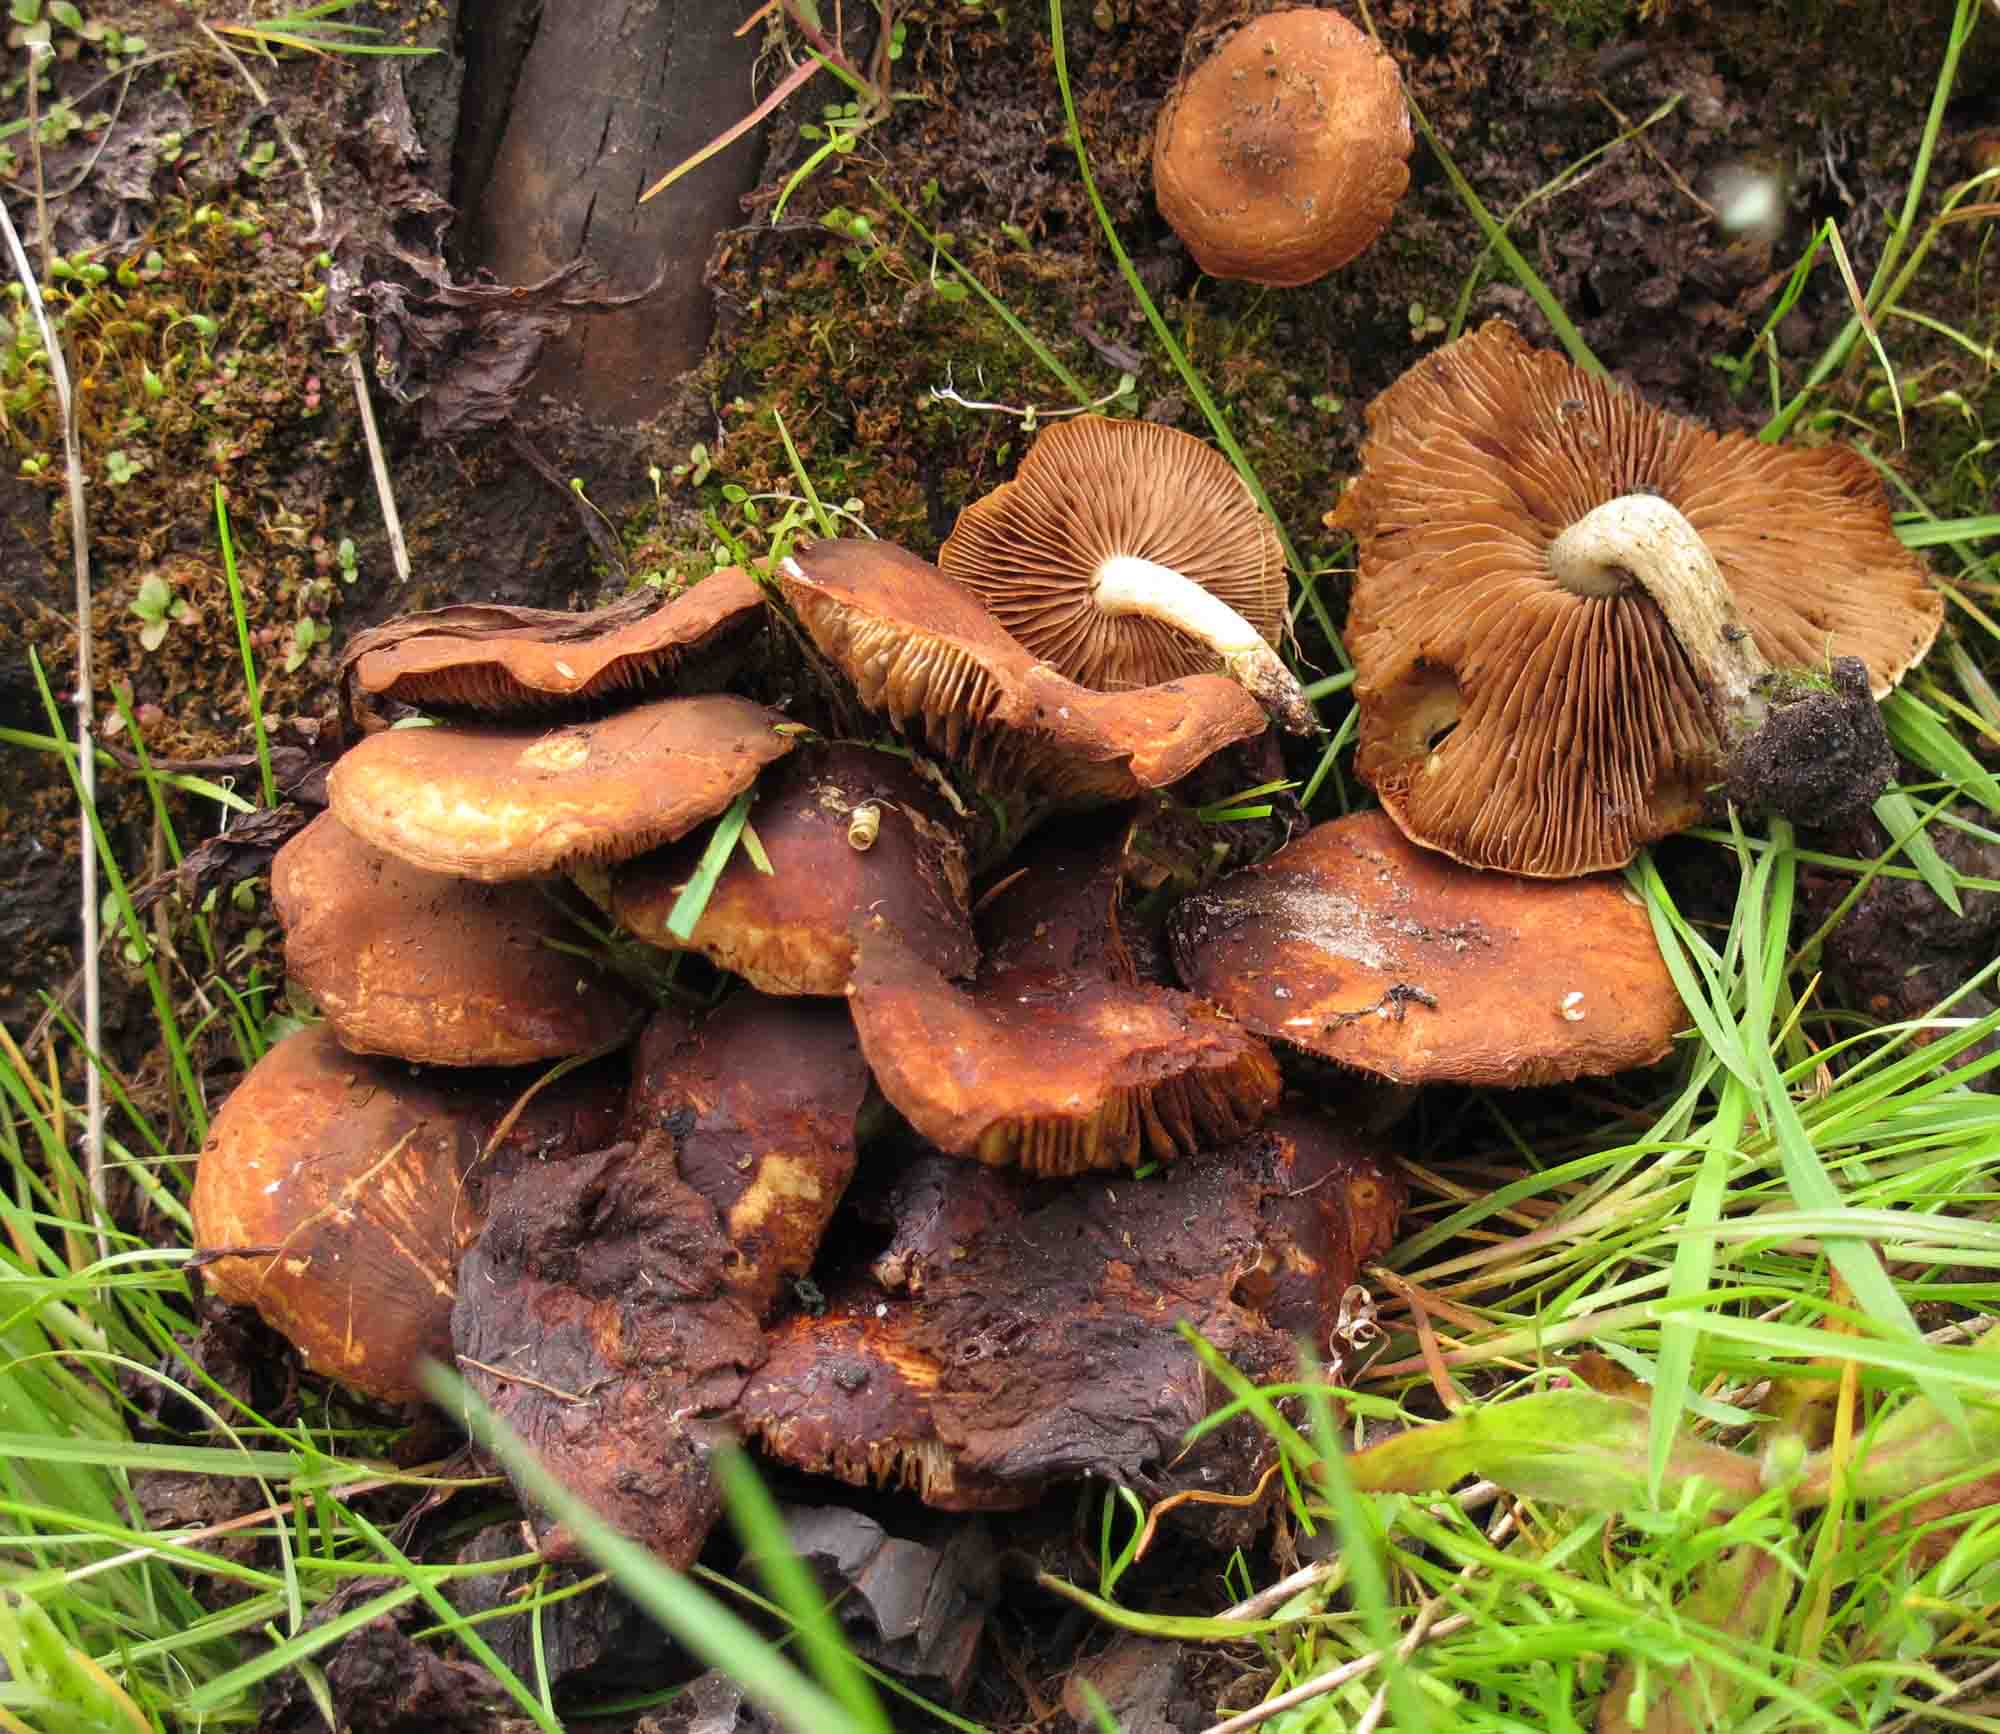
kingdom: Fungi
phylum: Basidiomycota
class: Agaricomycetes
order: Agaricales
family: Strophariaceae
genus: Pholiota
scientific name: Pholiota carbonaria
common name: kul-skælhat
